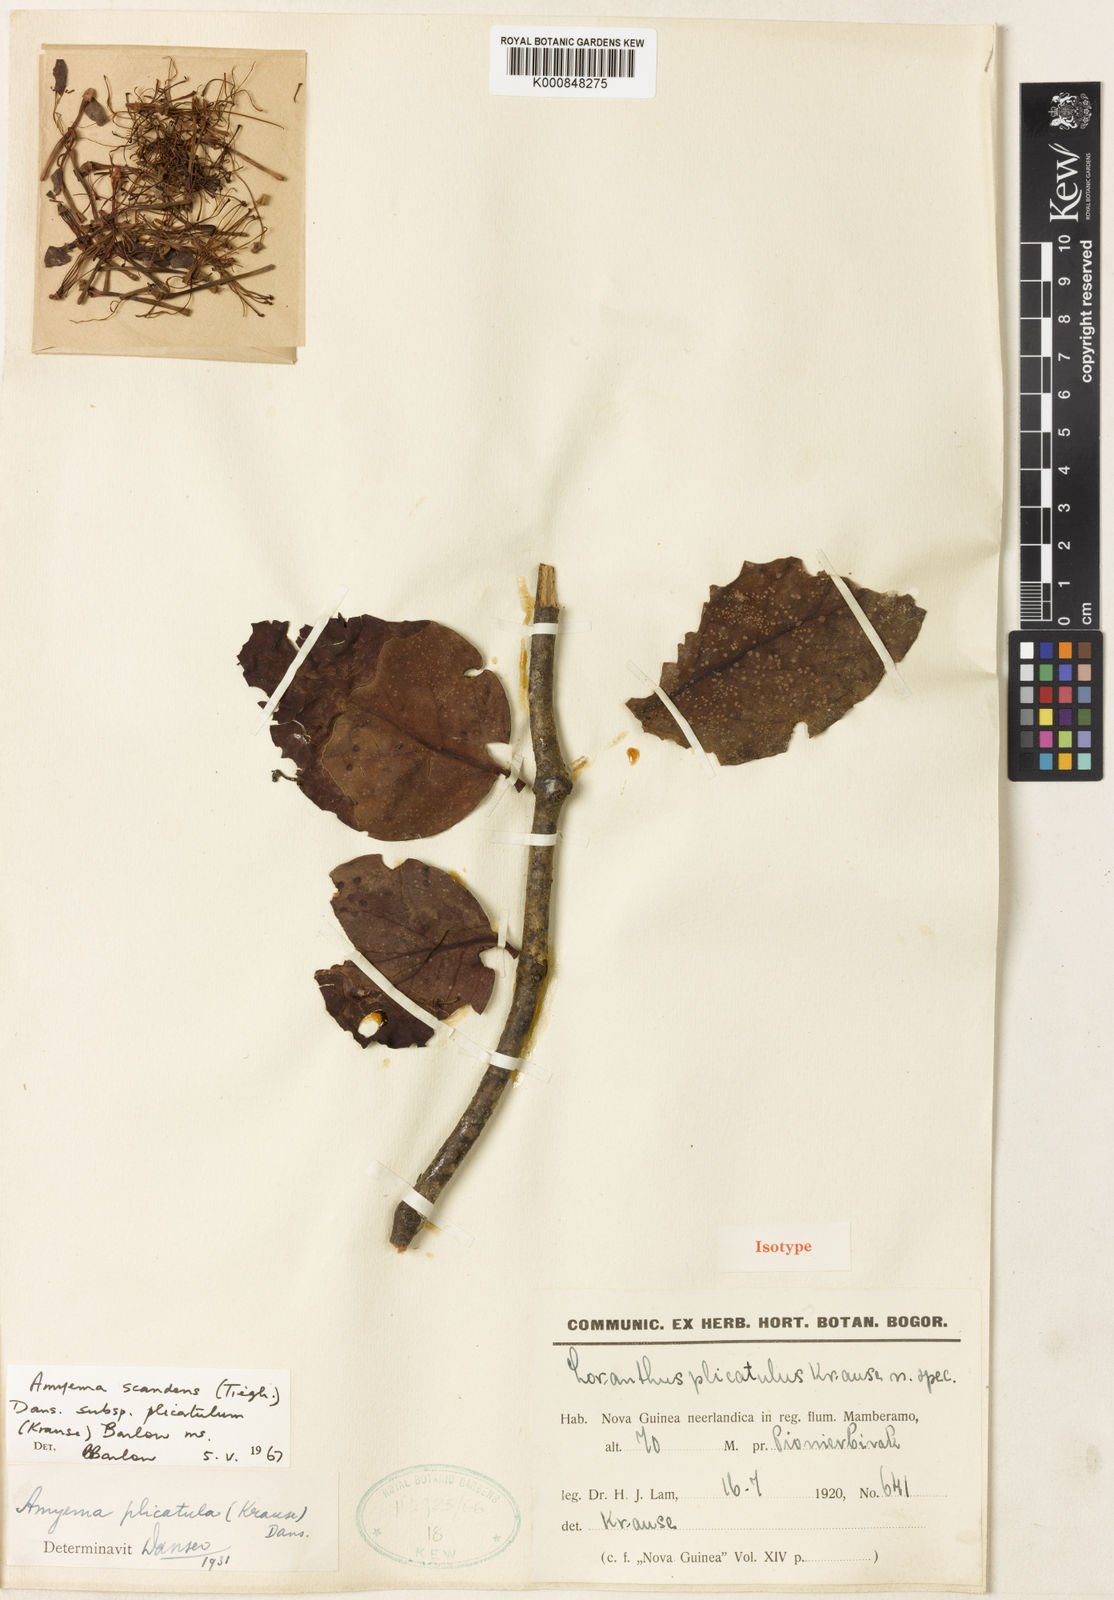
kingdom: Plantae
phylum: Tracheophyta
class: Magnoliopsida
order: Santalales
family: Loranthaceae
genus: Amyema
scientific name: Amyema plicatula
